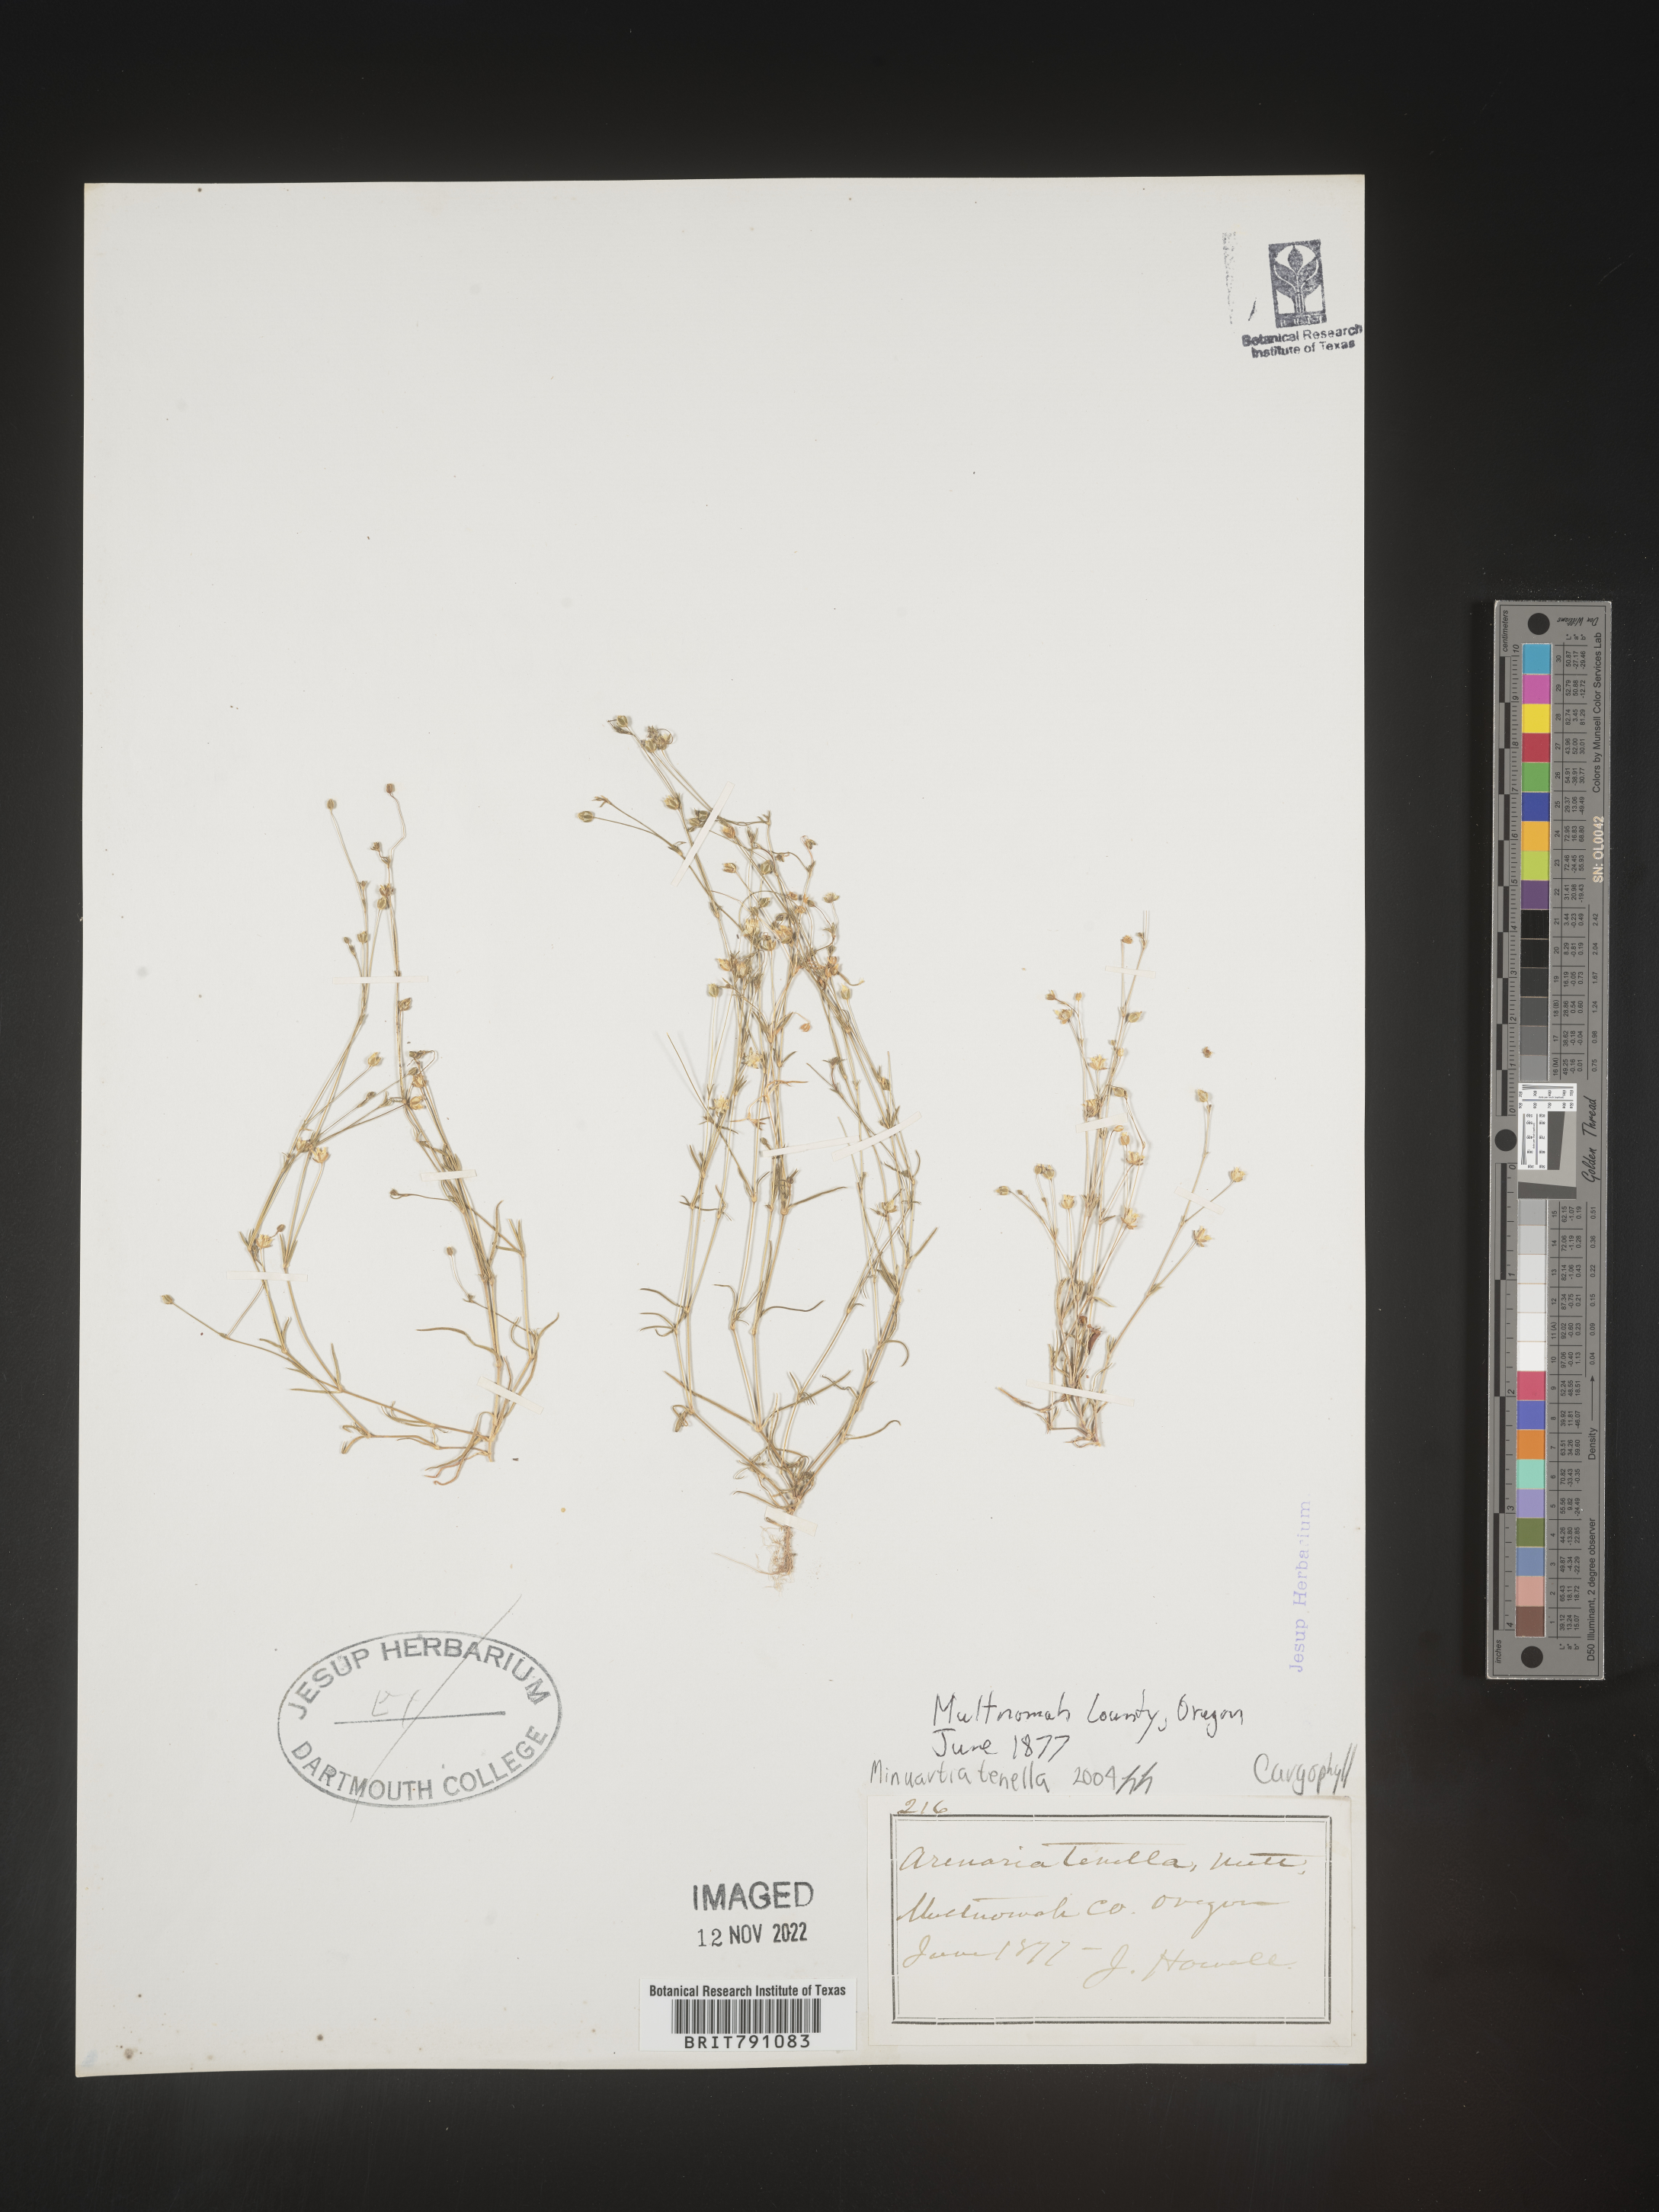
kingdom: Plantae
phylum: Tracheophyta
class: Magnoliopsida
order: Caryophyllales
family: Caryophyllaceae
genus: Minuartia
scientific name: Minuartia
